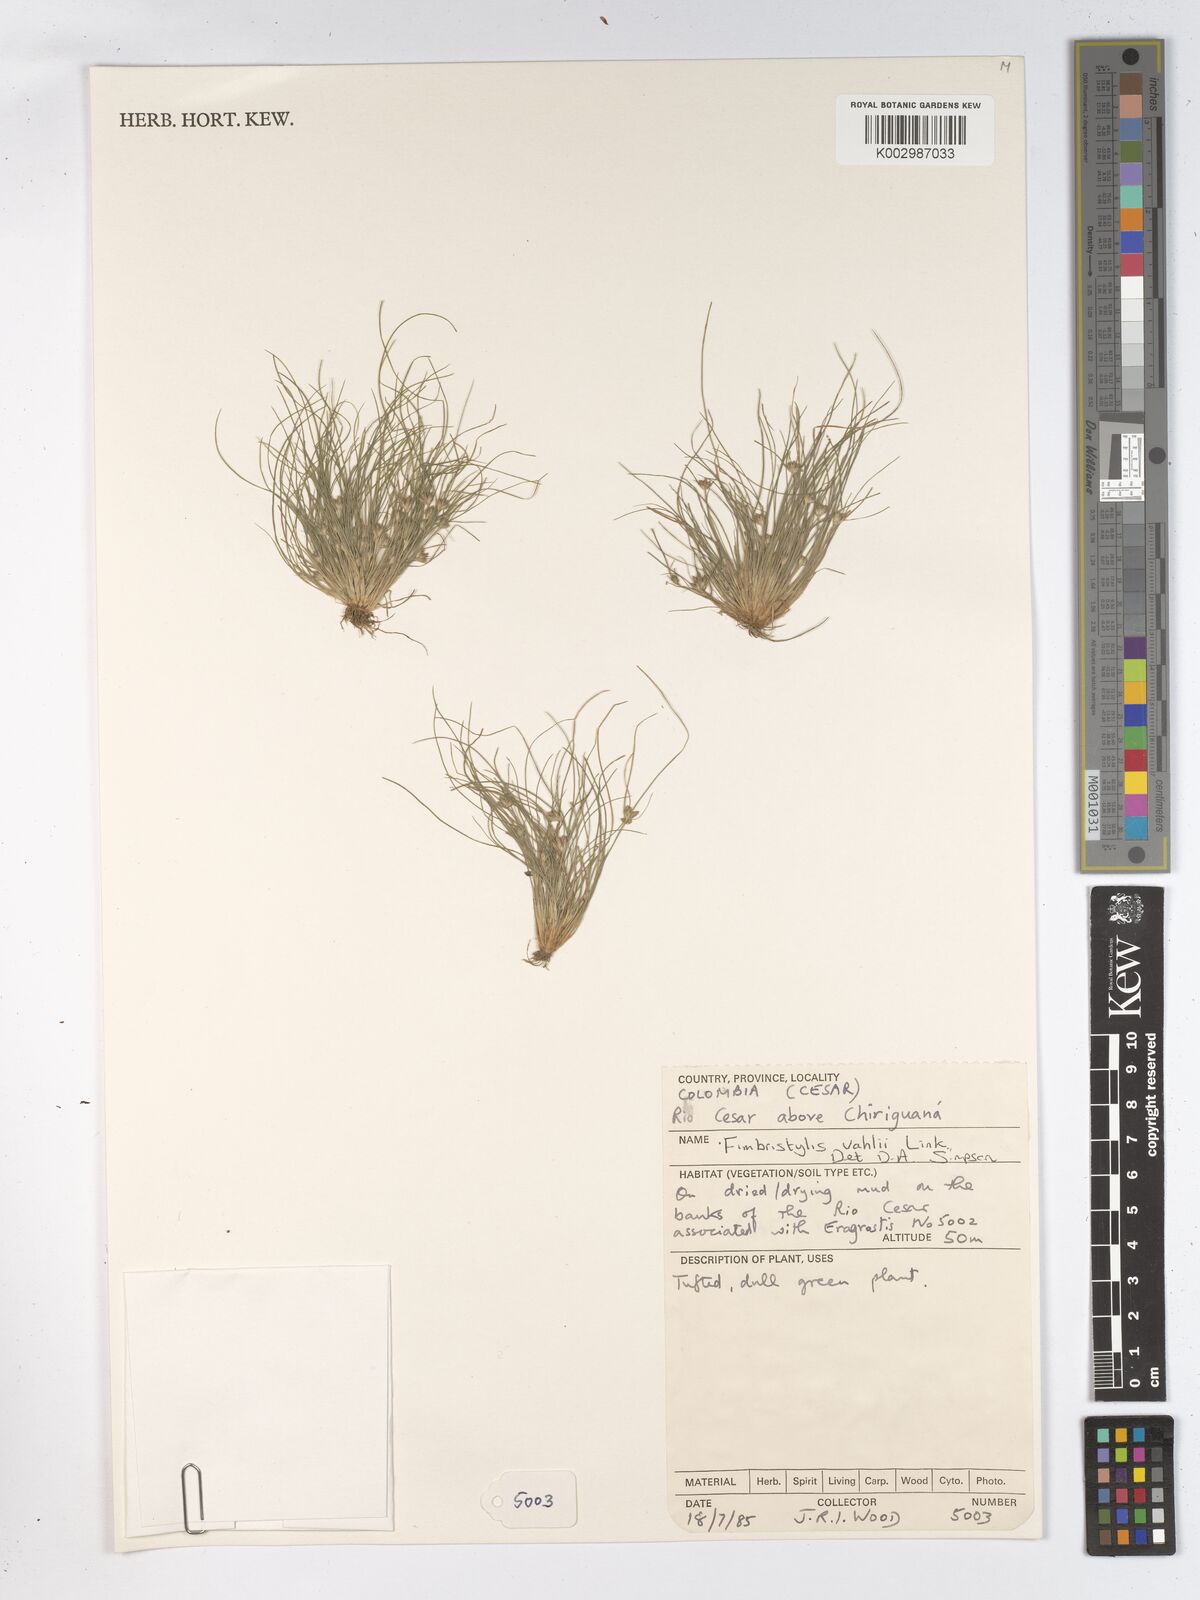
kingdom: Plantae
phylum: Tracheophyta
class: Liliopsida
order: Poales
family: Cyperaceae
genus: Fimbristylis
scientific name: Fimbristylis vahlii
